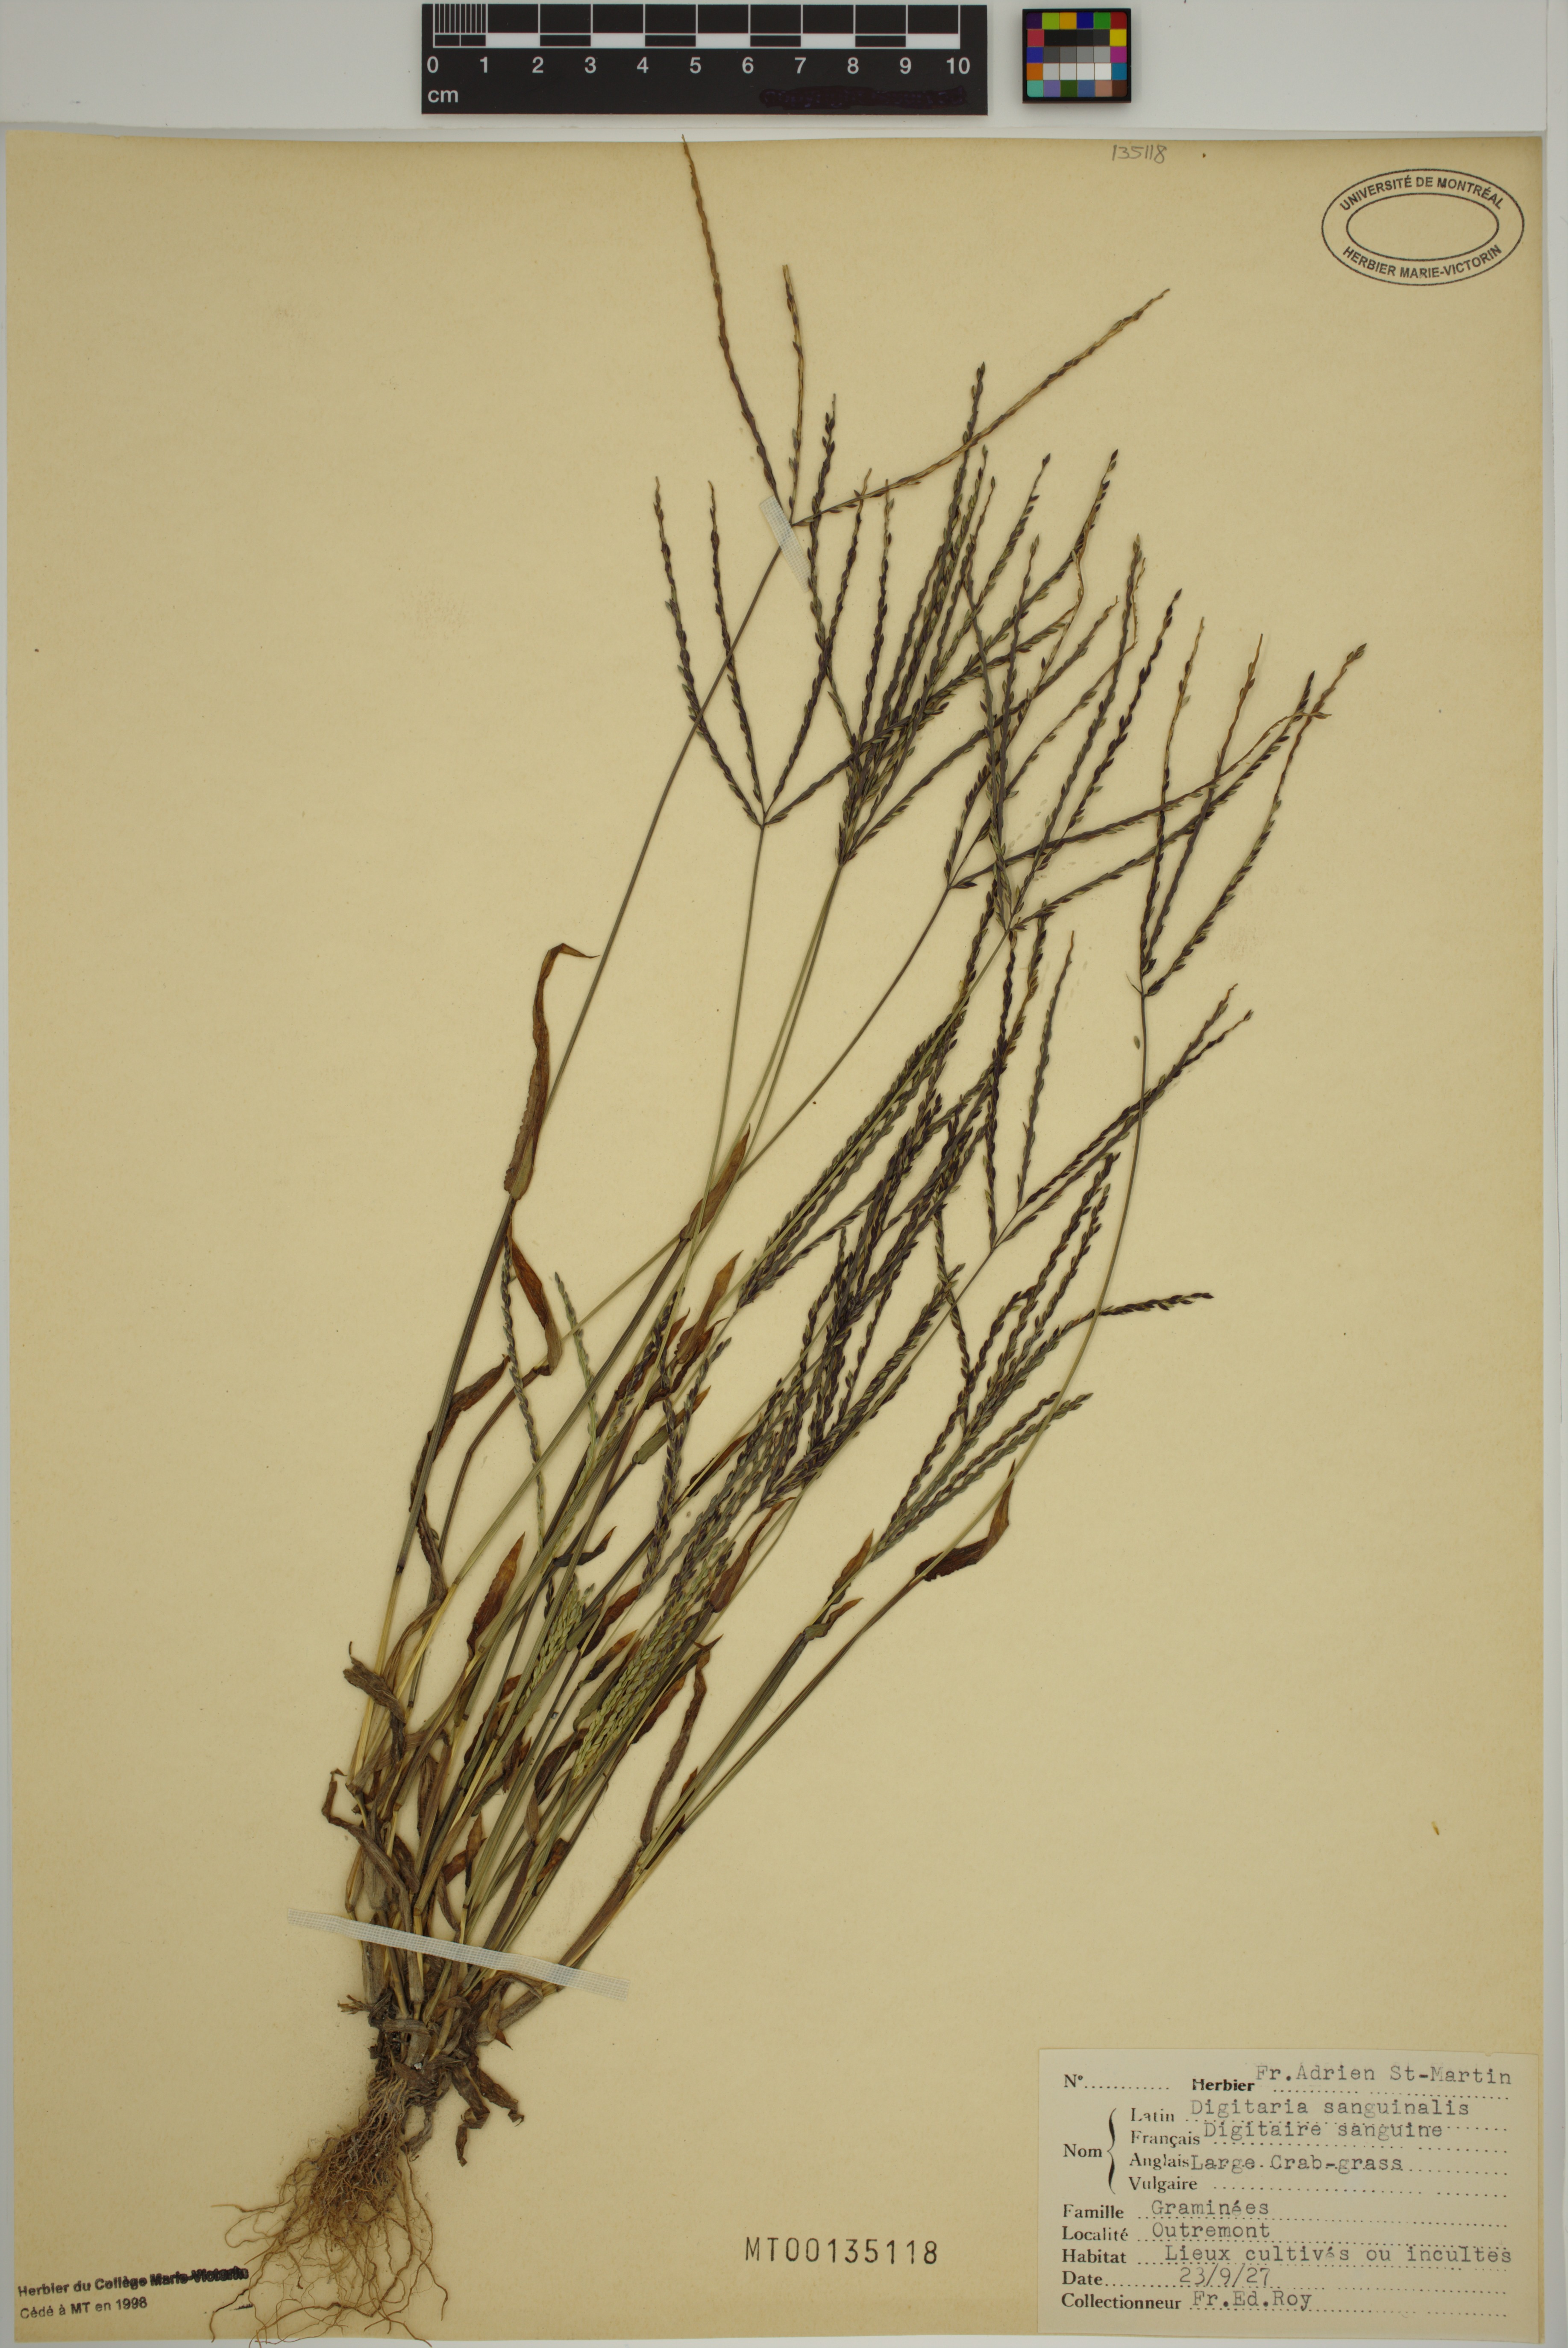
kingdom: Plantae
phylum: Tracheophyta
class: Liliopsida
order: Poales
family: Poaceae
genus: Digitaria
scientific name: Digitaria sanguinalis
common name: Hairy crabgrass
